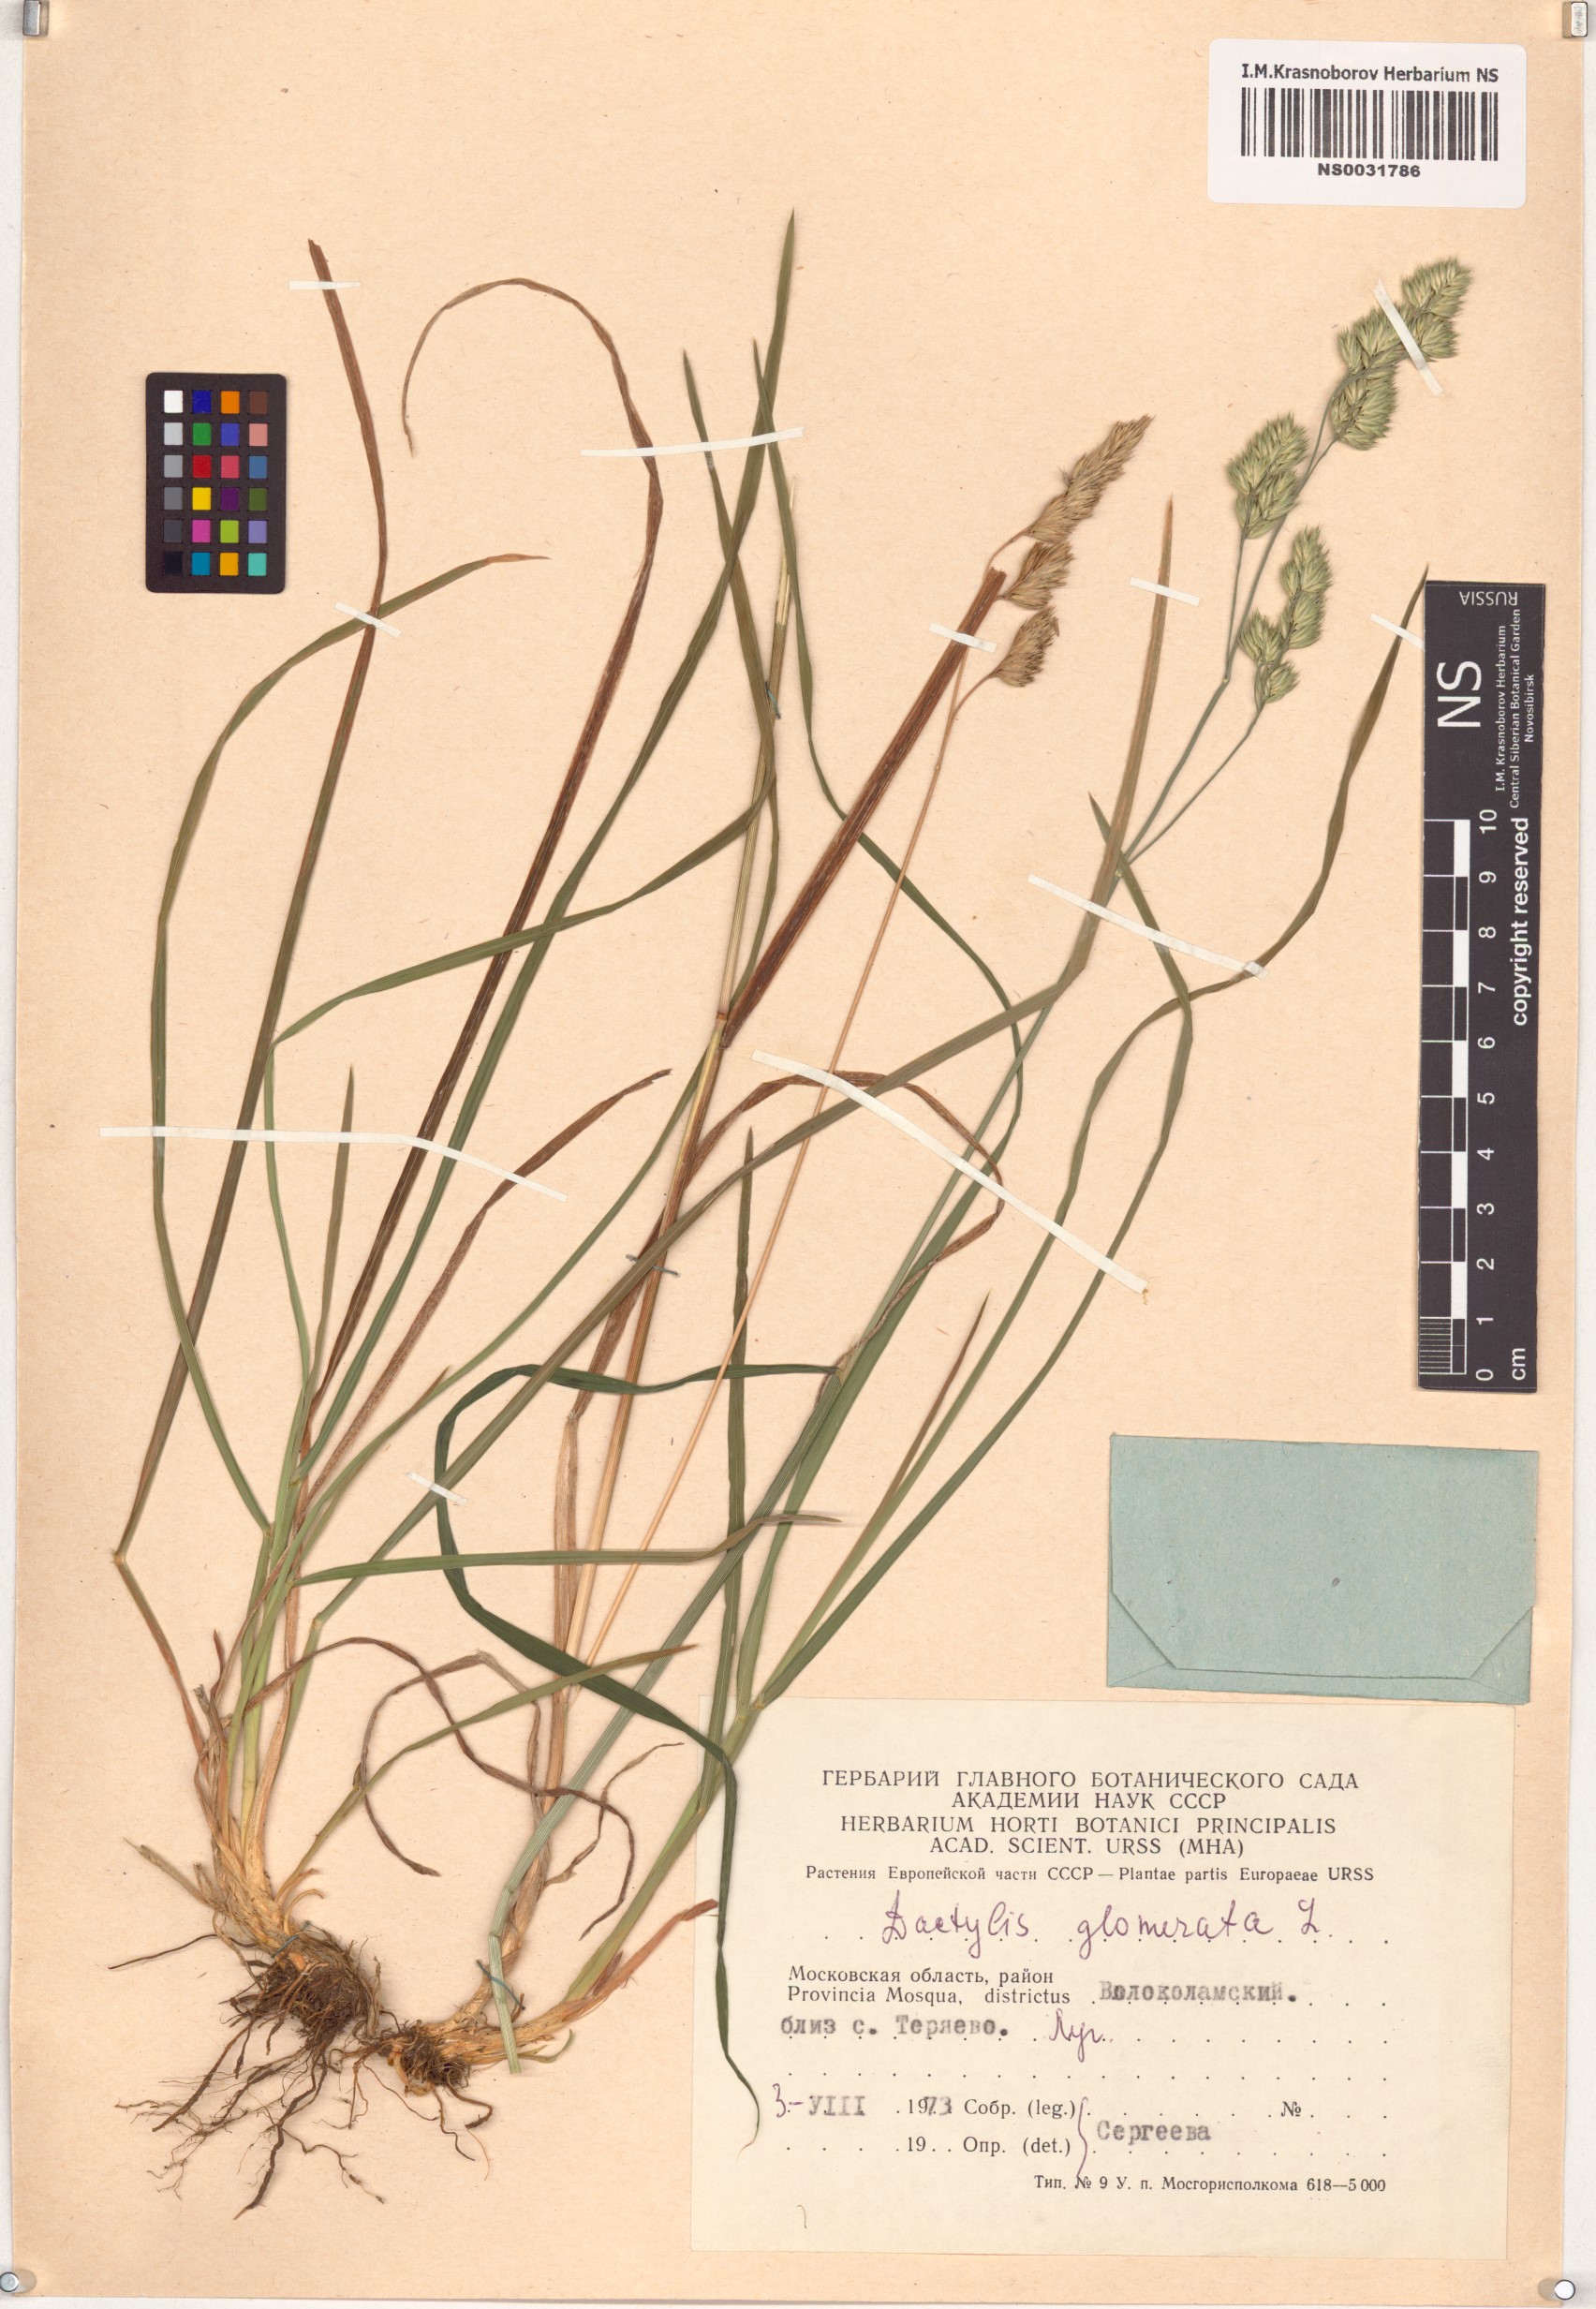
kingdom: Plantae
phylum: Tracheophyta
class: Liliopsida
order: Poales
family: Poaceae
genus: Dactylis
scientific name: Dactylis glomerata
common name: Orchardgrass
